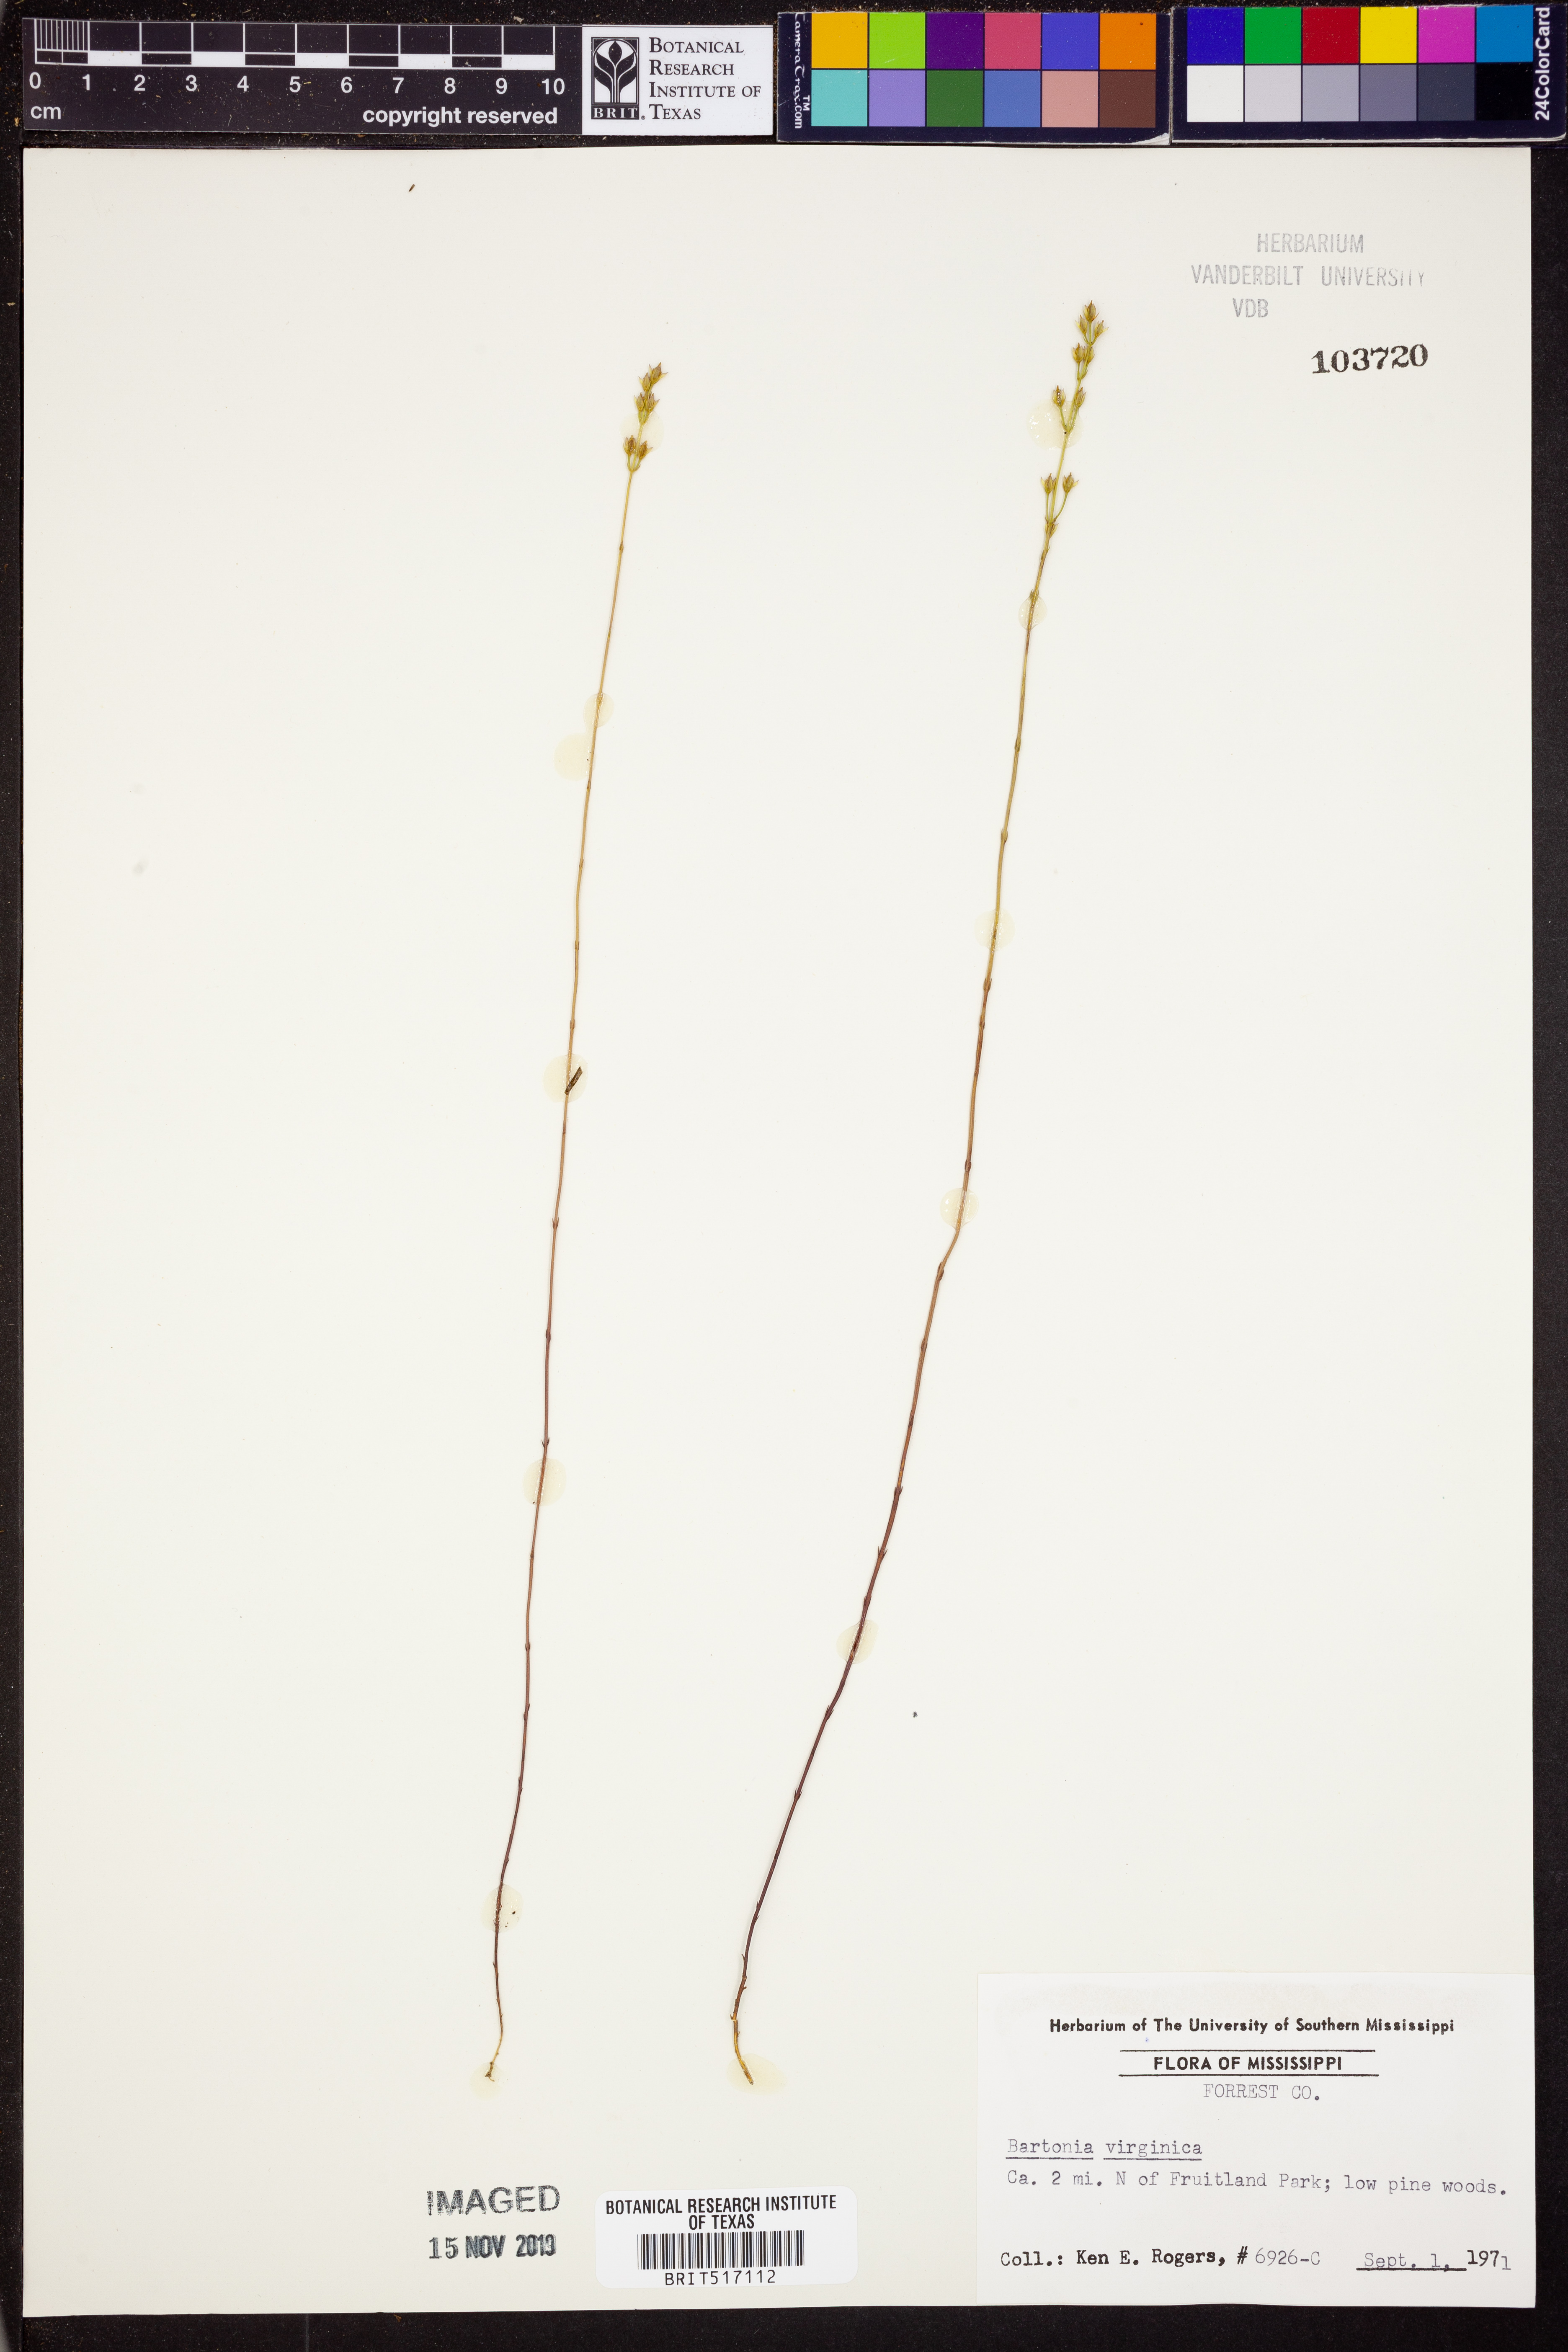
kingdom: Plantae
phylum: Tracheophyta
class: Magnoliopsida
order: Gentianales
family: Gentianaceae
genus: Bartonia
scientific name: Bartonia virginica
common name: Yellow bartonia
